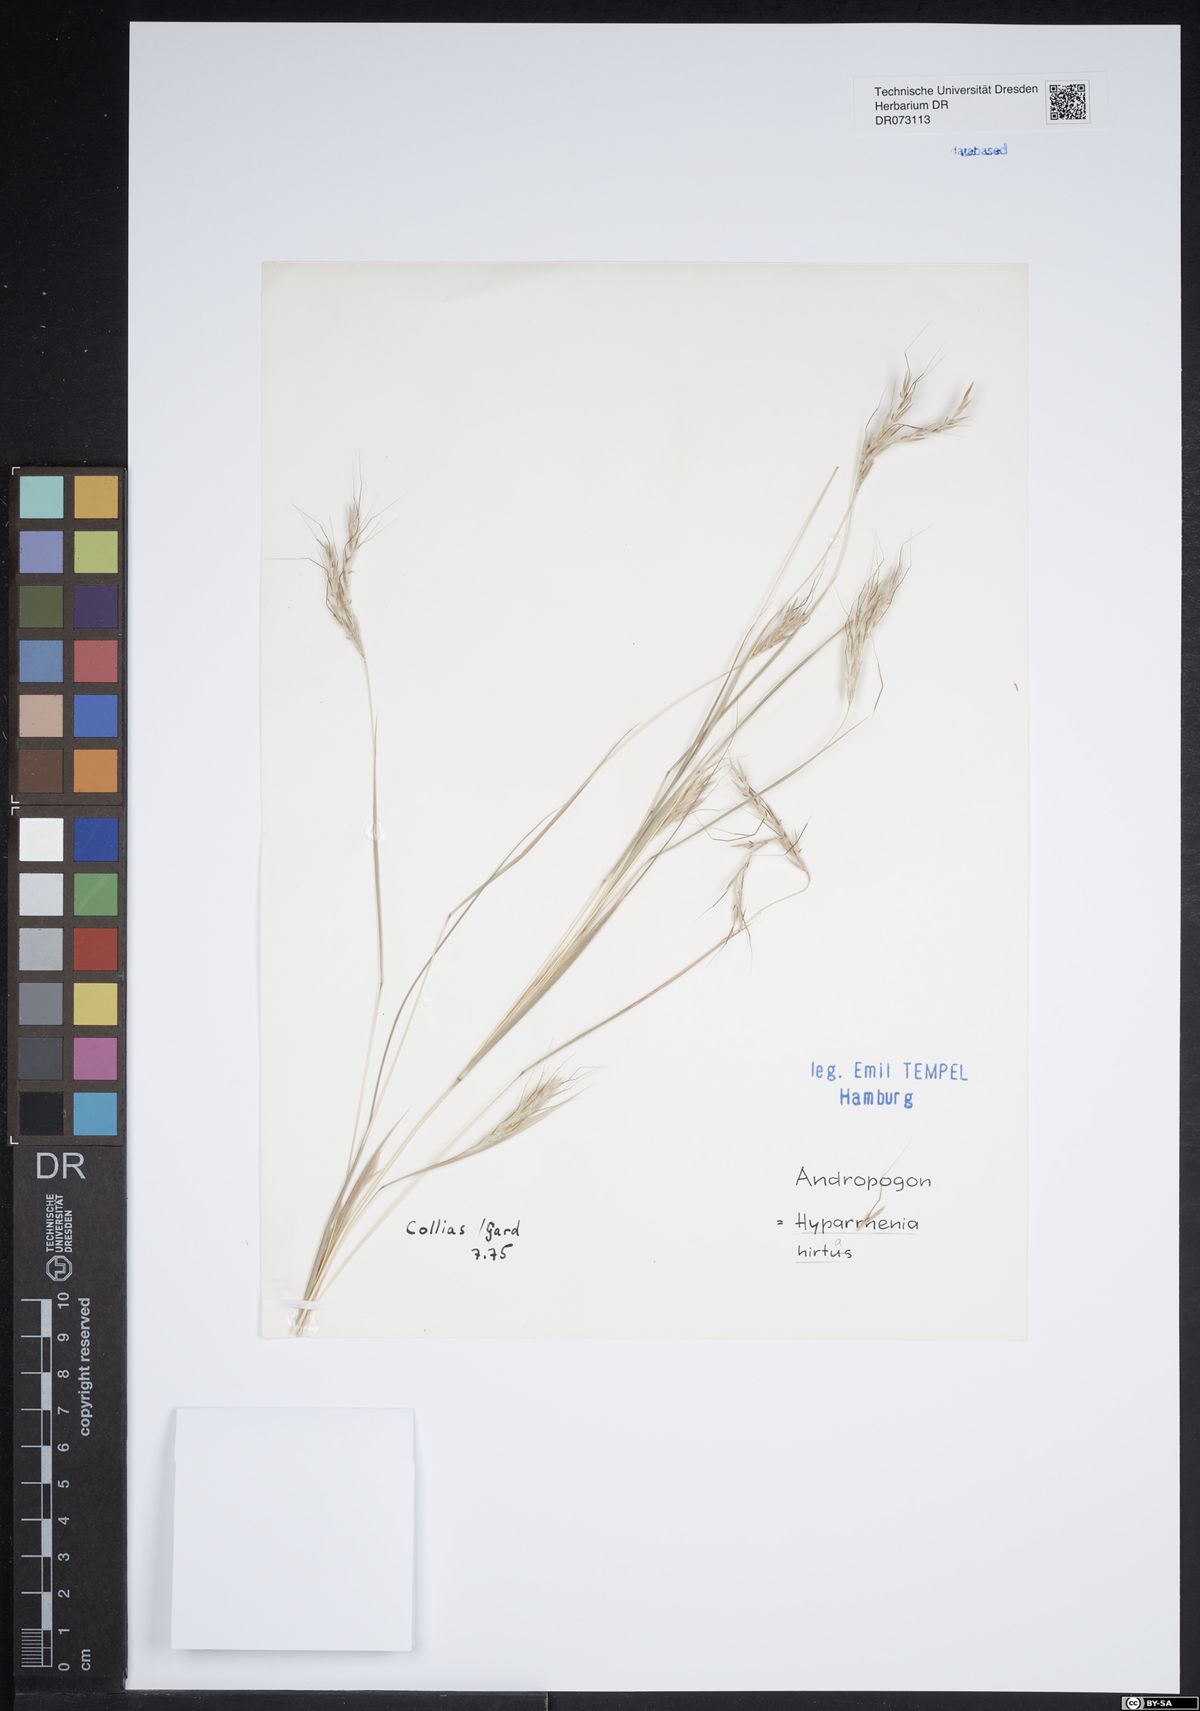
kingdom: Plantae
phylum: Tracheophyta
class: Liliopsida
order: Poales
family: Poaceae
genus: Hyparrhenia
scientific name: Hyparrhenia hirta
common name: Thatching grass
